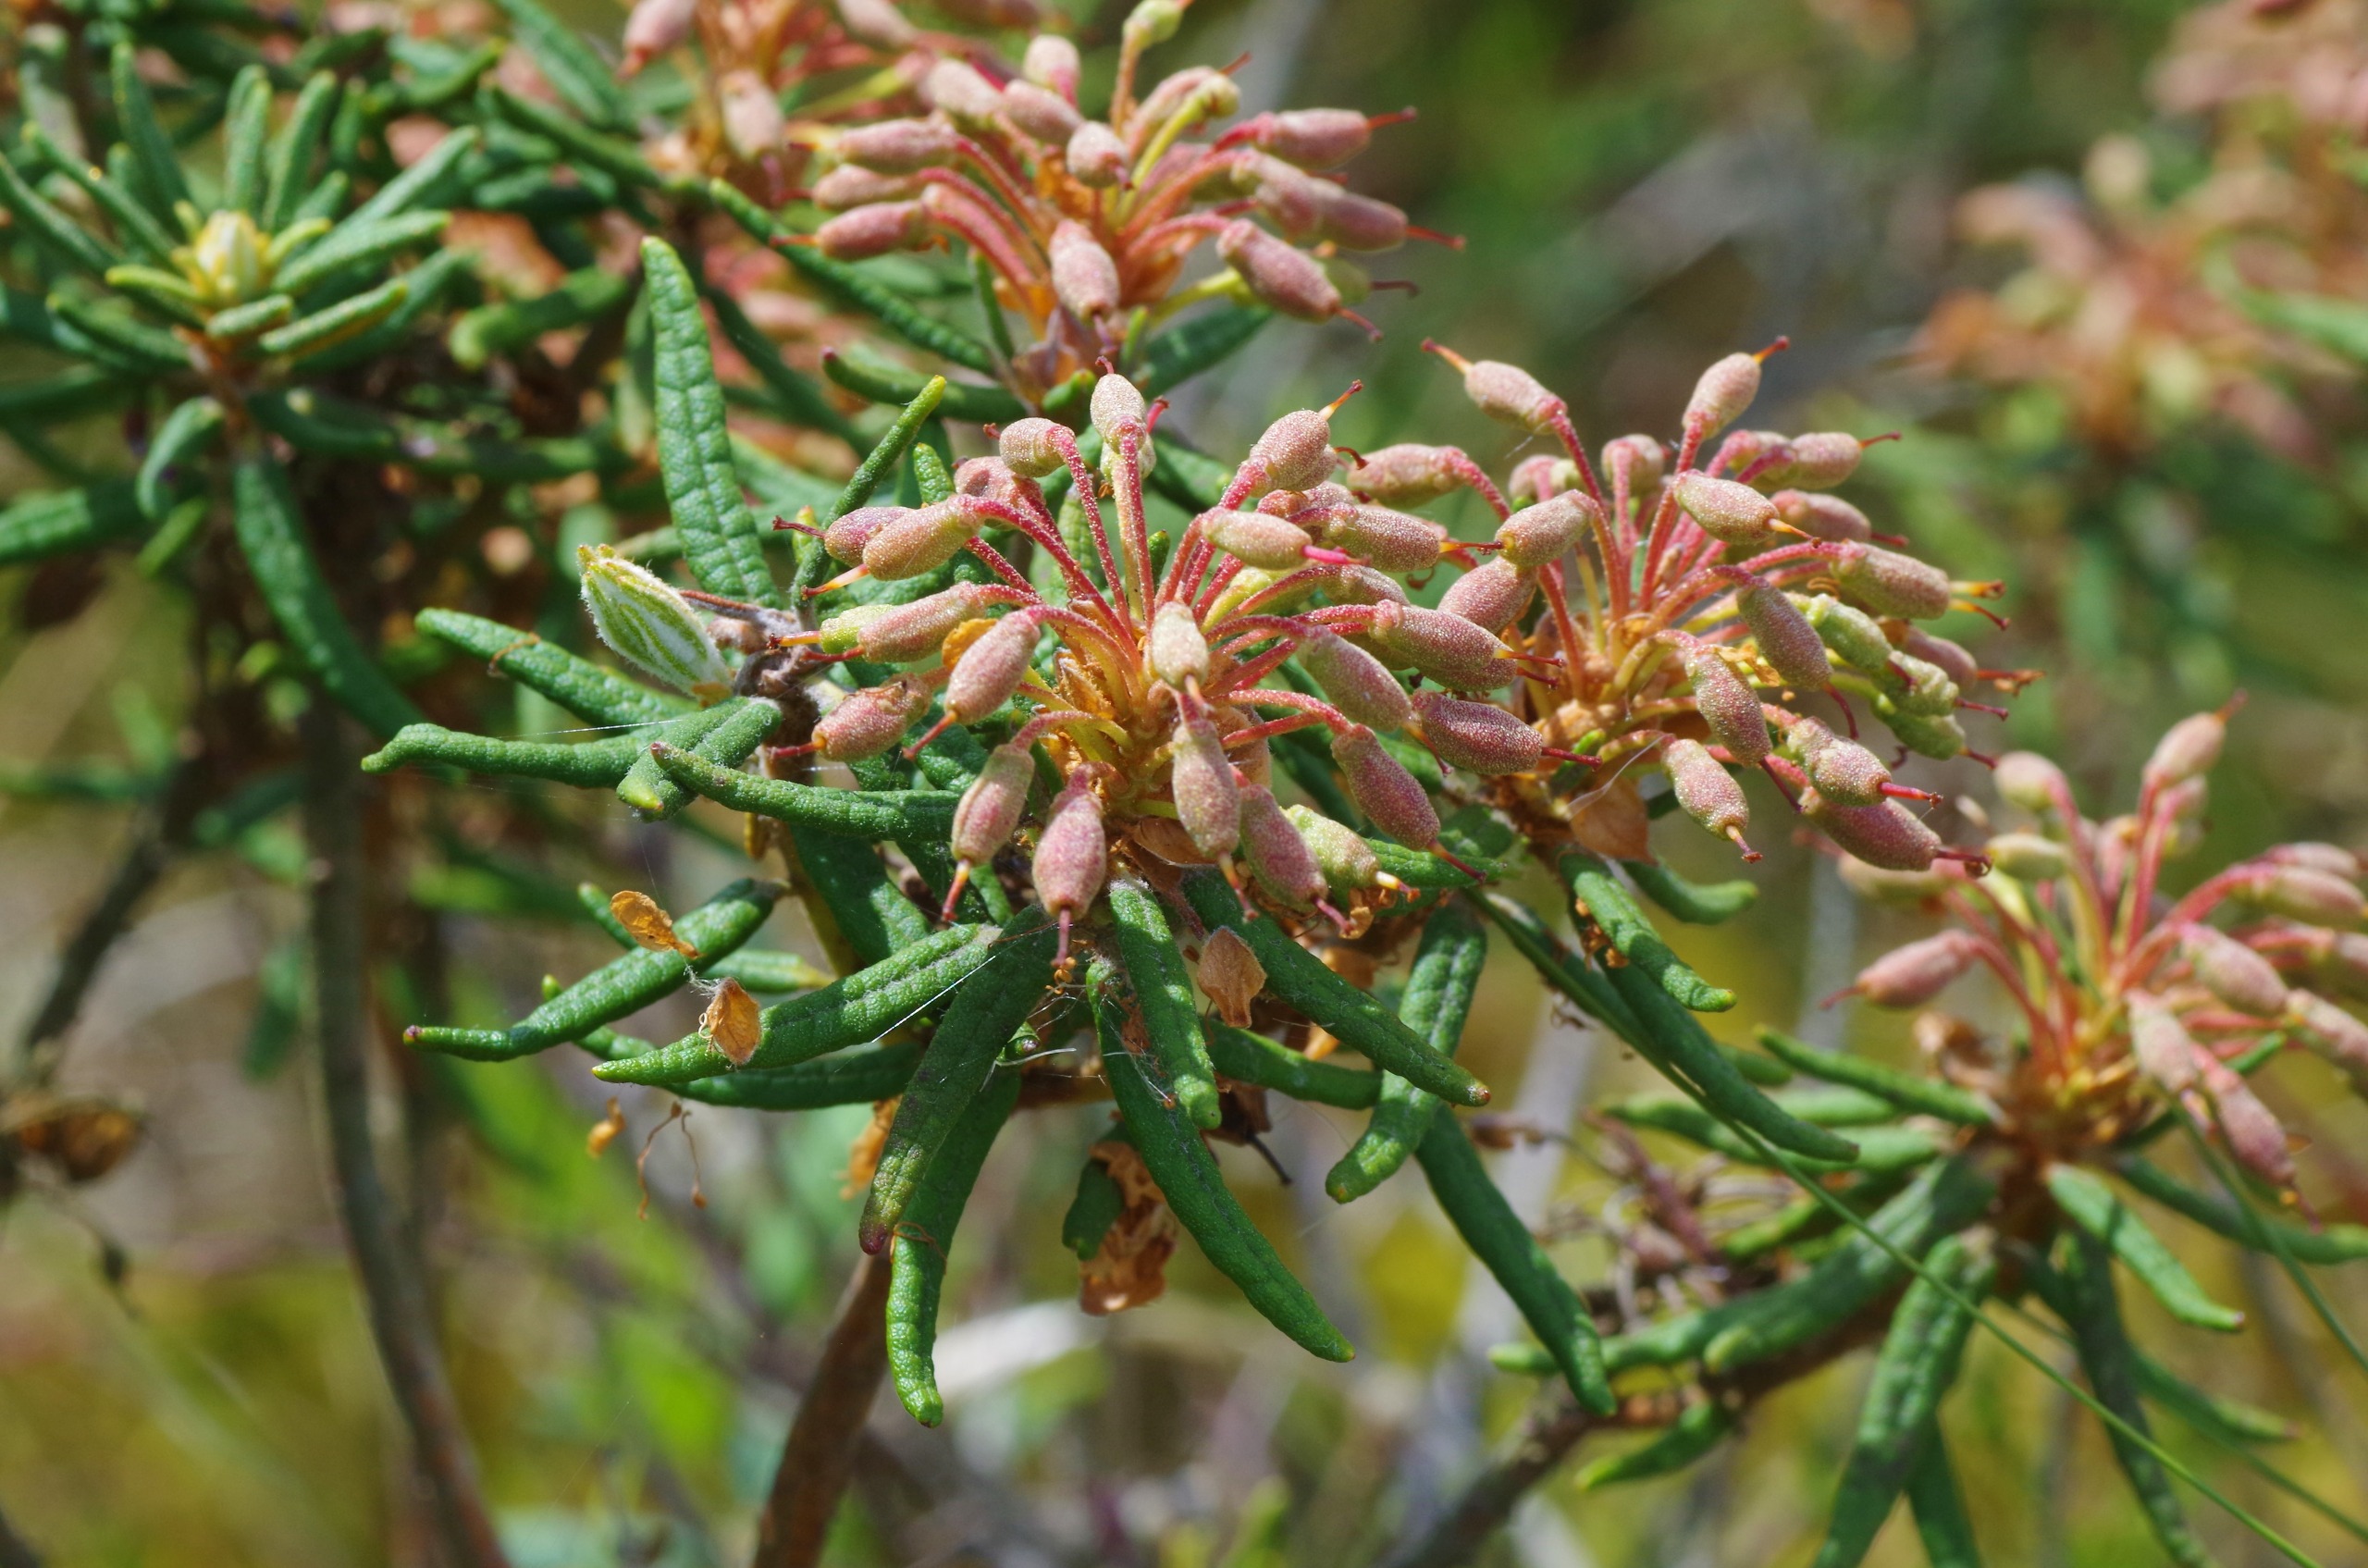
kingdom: Plantae
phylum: Tracheophyta
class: Magnoliopsida
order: Ericales
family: Ericaceae
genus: Rhododendron
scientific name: Rhododendron tomentosum
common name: Mosepost
